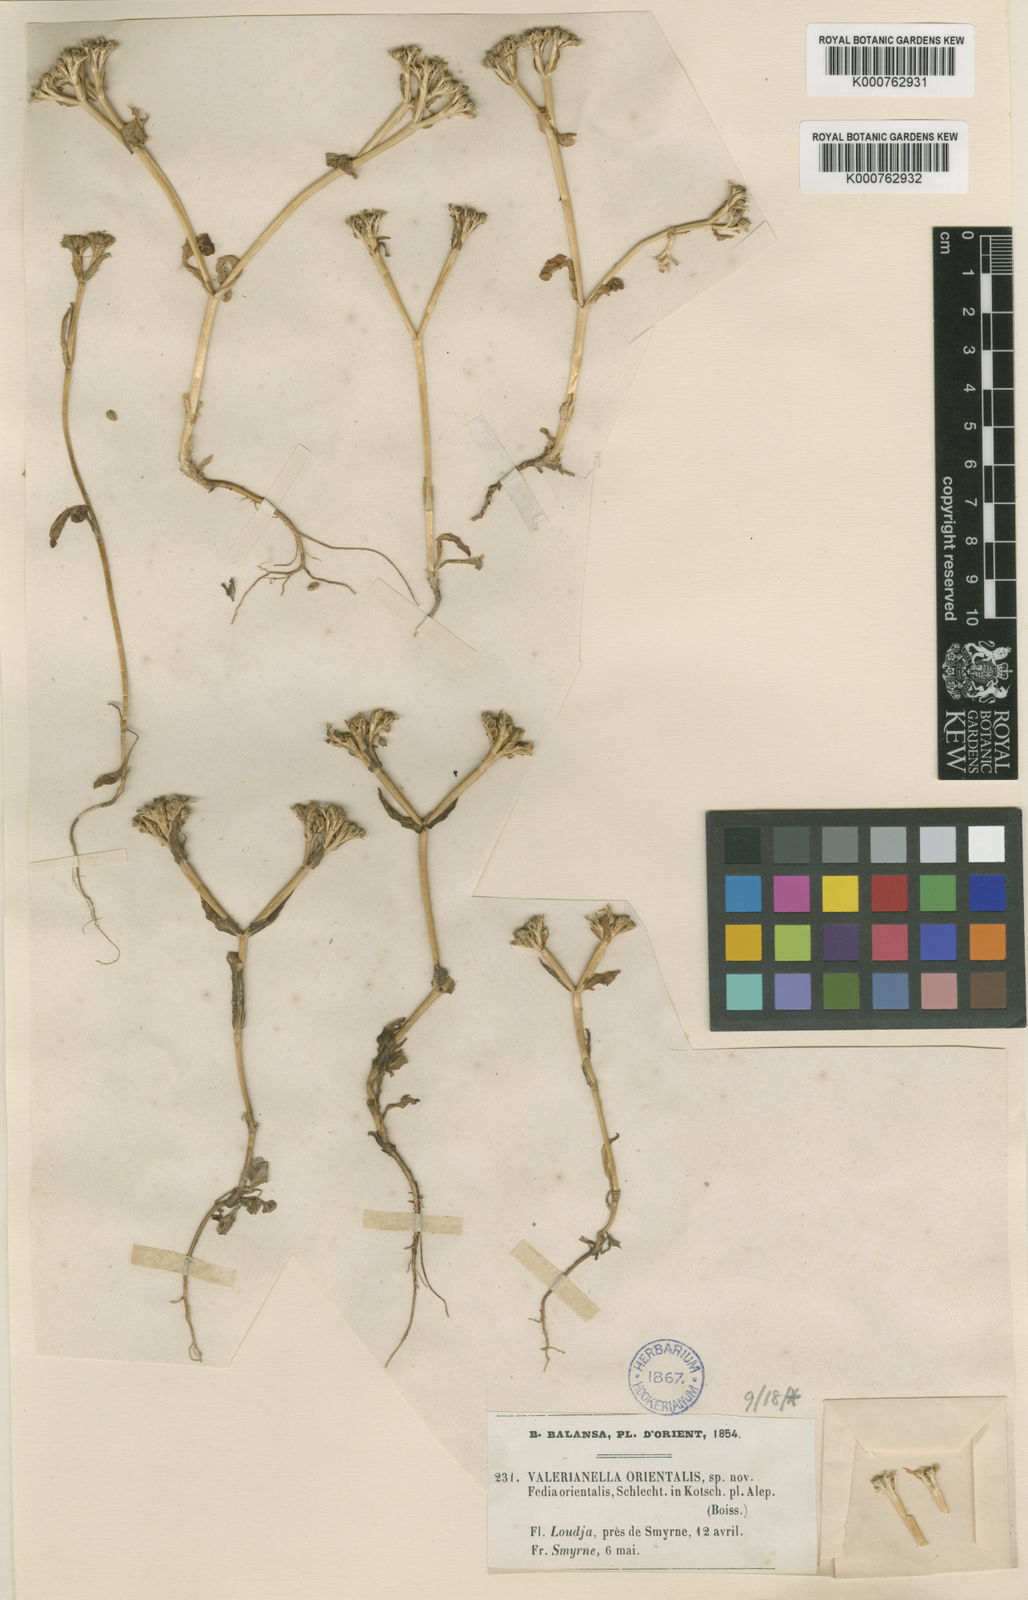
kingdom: Plantae
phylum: Tracheophyta
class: Magnoliopsida
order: Dipsacales
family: Caprifoliaceae
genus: Valerianella
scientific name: Valerianella orientalis
